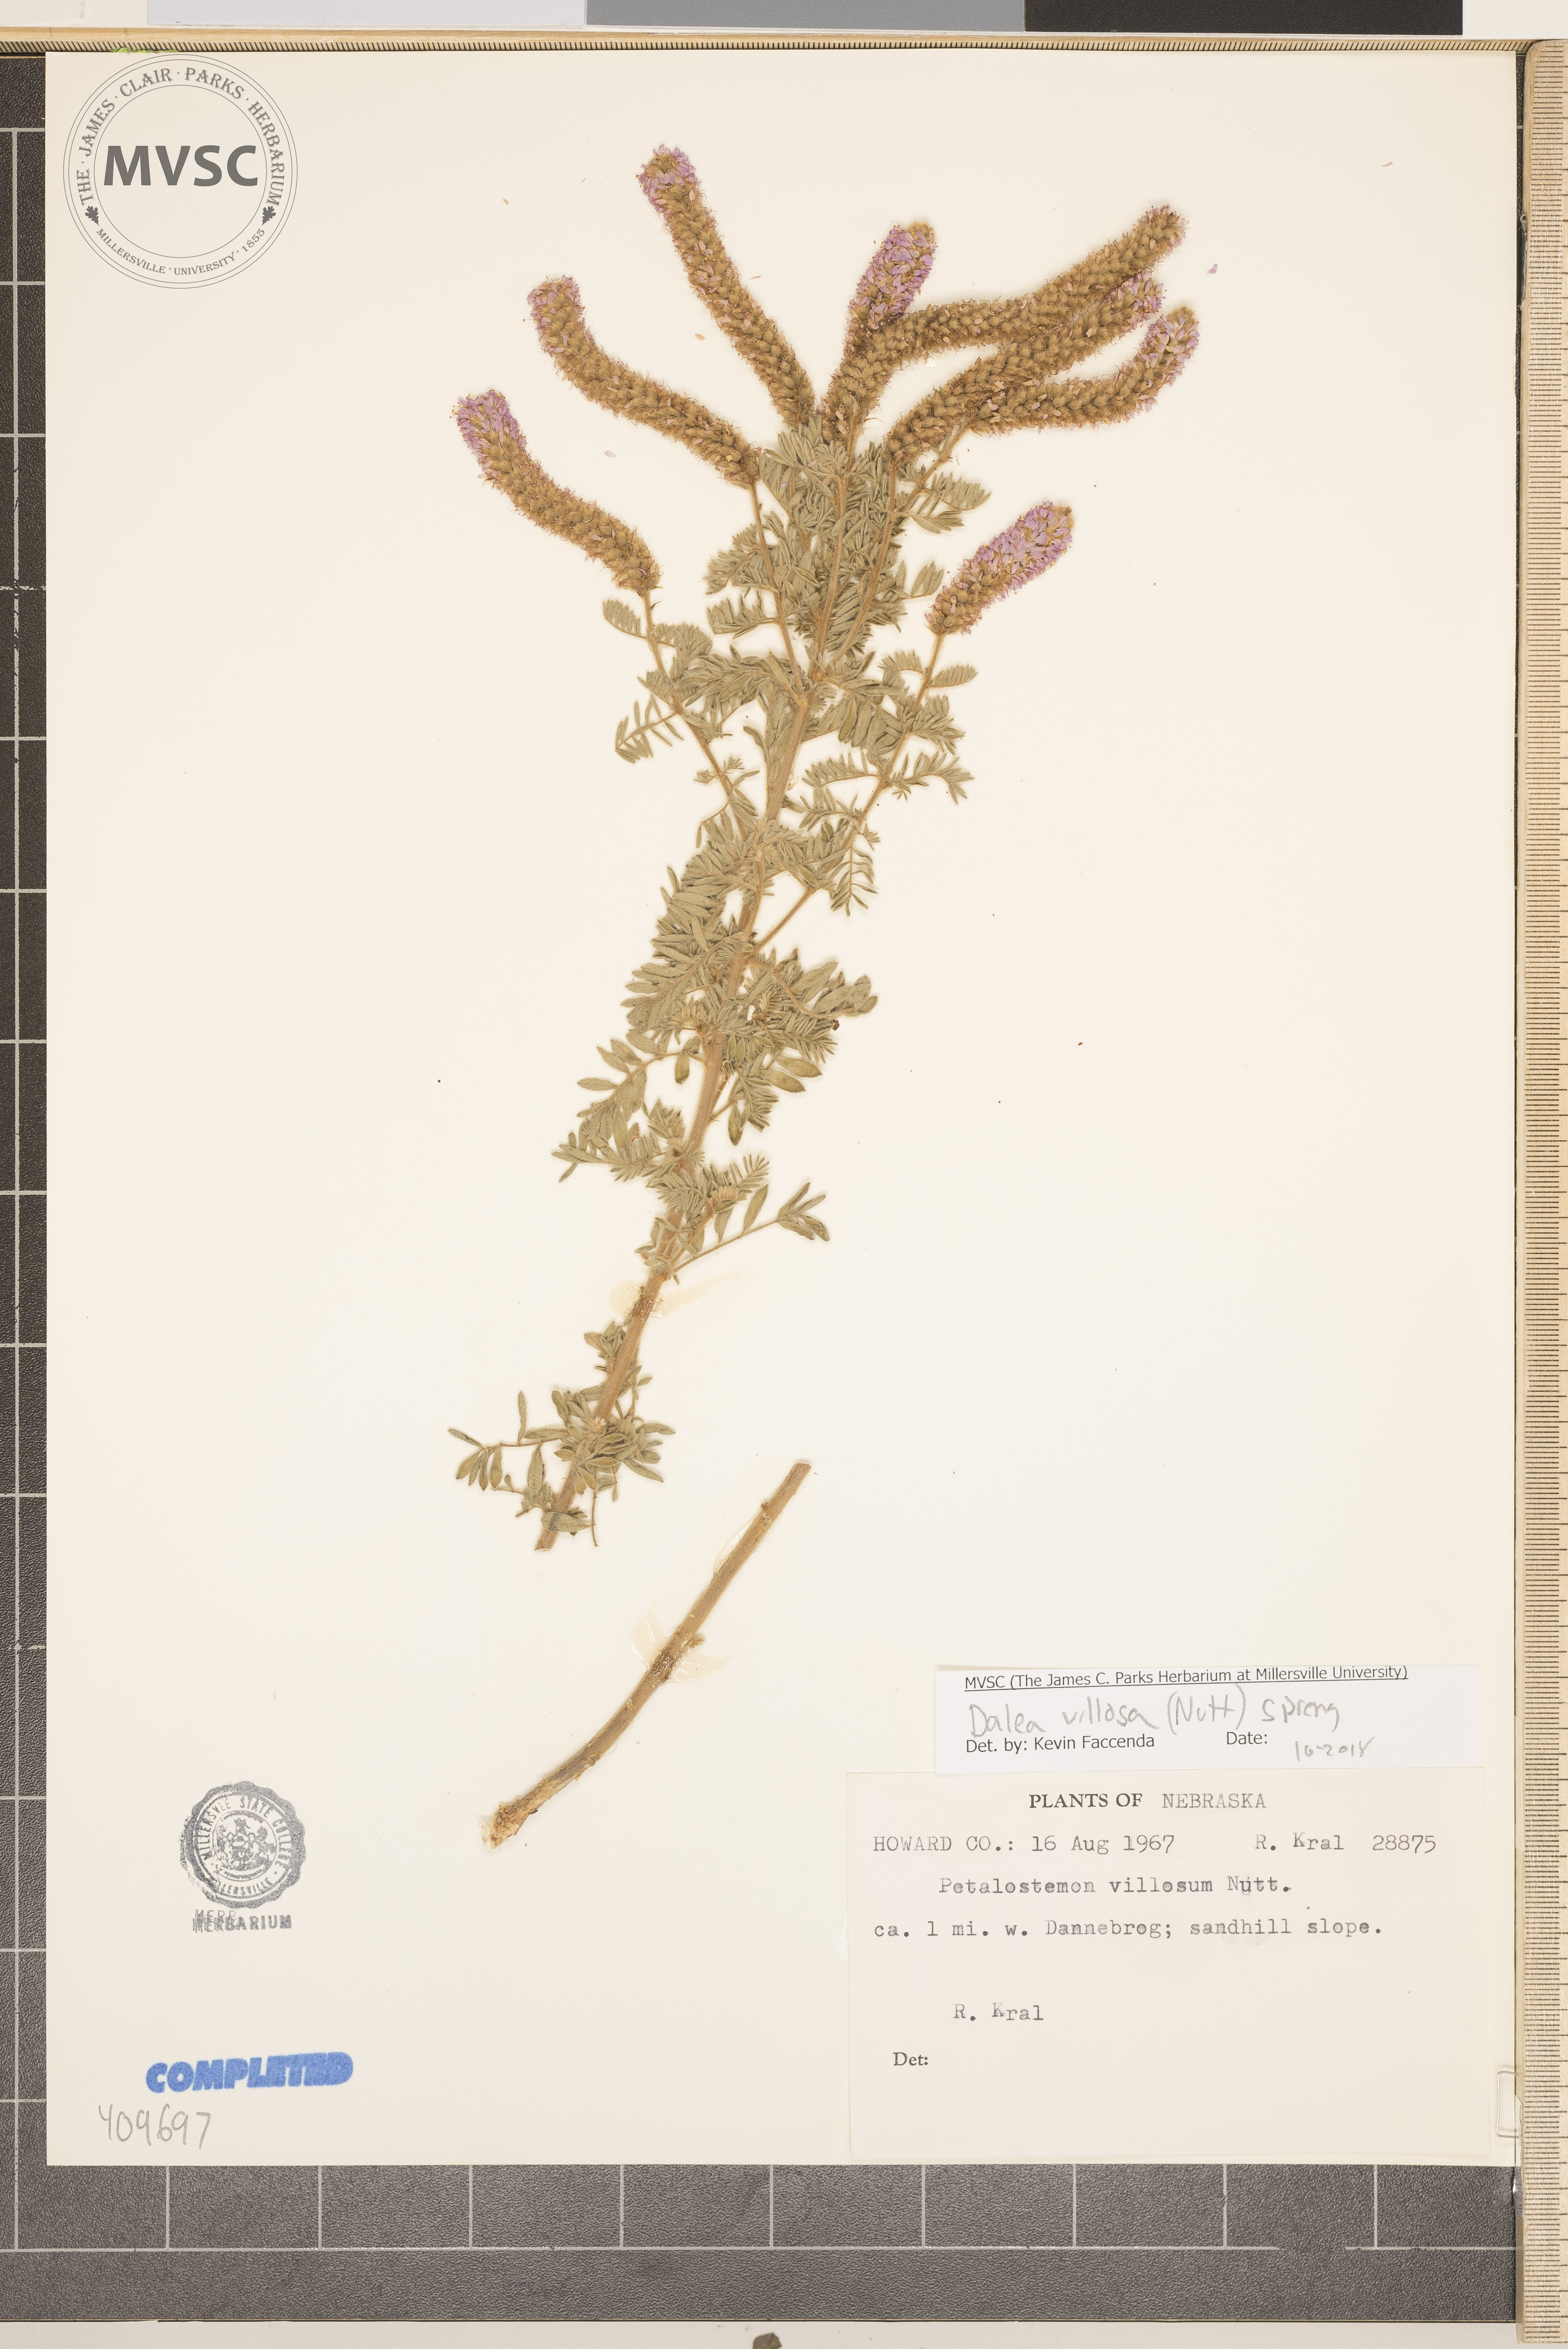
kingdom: Plantae
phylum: Tracheophyta
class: Magnoliopsida
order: Fabales
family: Fabaceae
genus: Dalea
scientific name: Dalea villosa
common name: Silky prairie-clover
